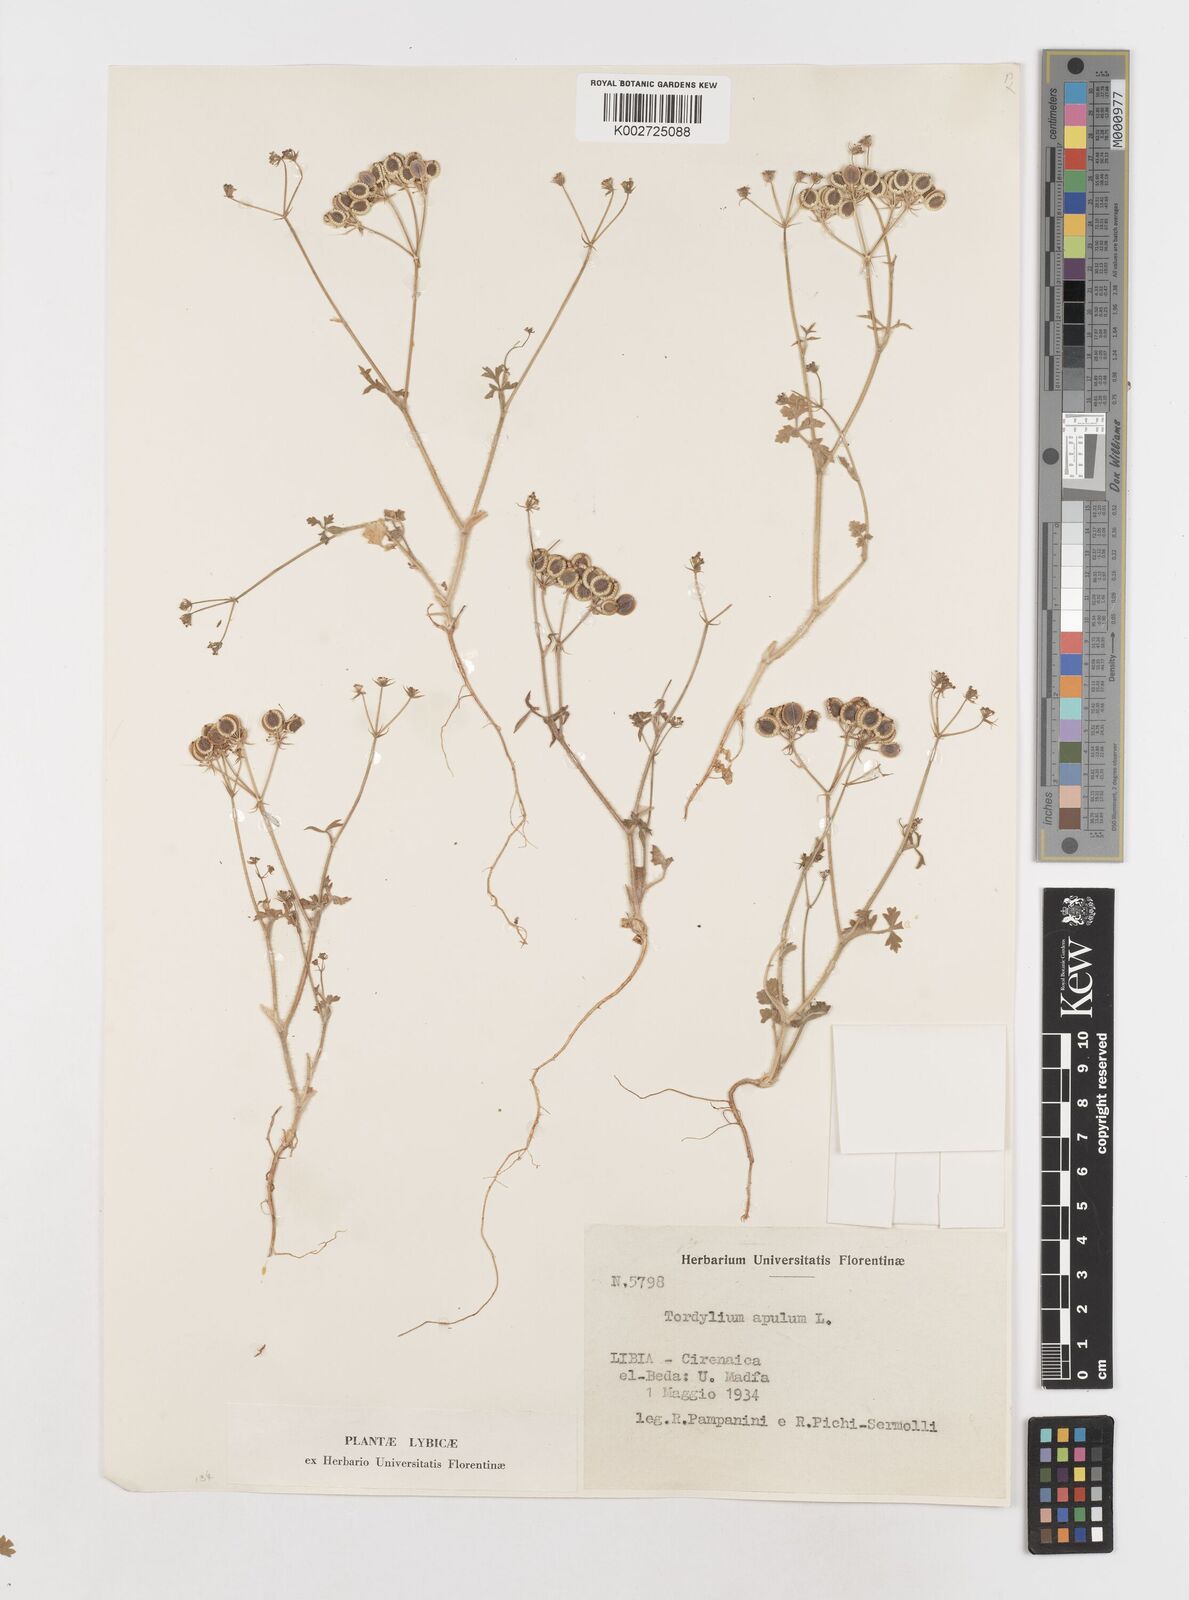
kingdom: Plantae
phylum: Tracheophyta
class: Magnoliopsida
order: Apiales
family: Apiaceae
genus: Tordylium
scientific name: Tordylium apulum
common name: Mediterranean hartwort
